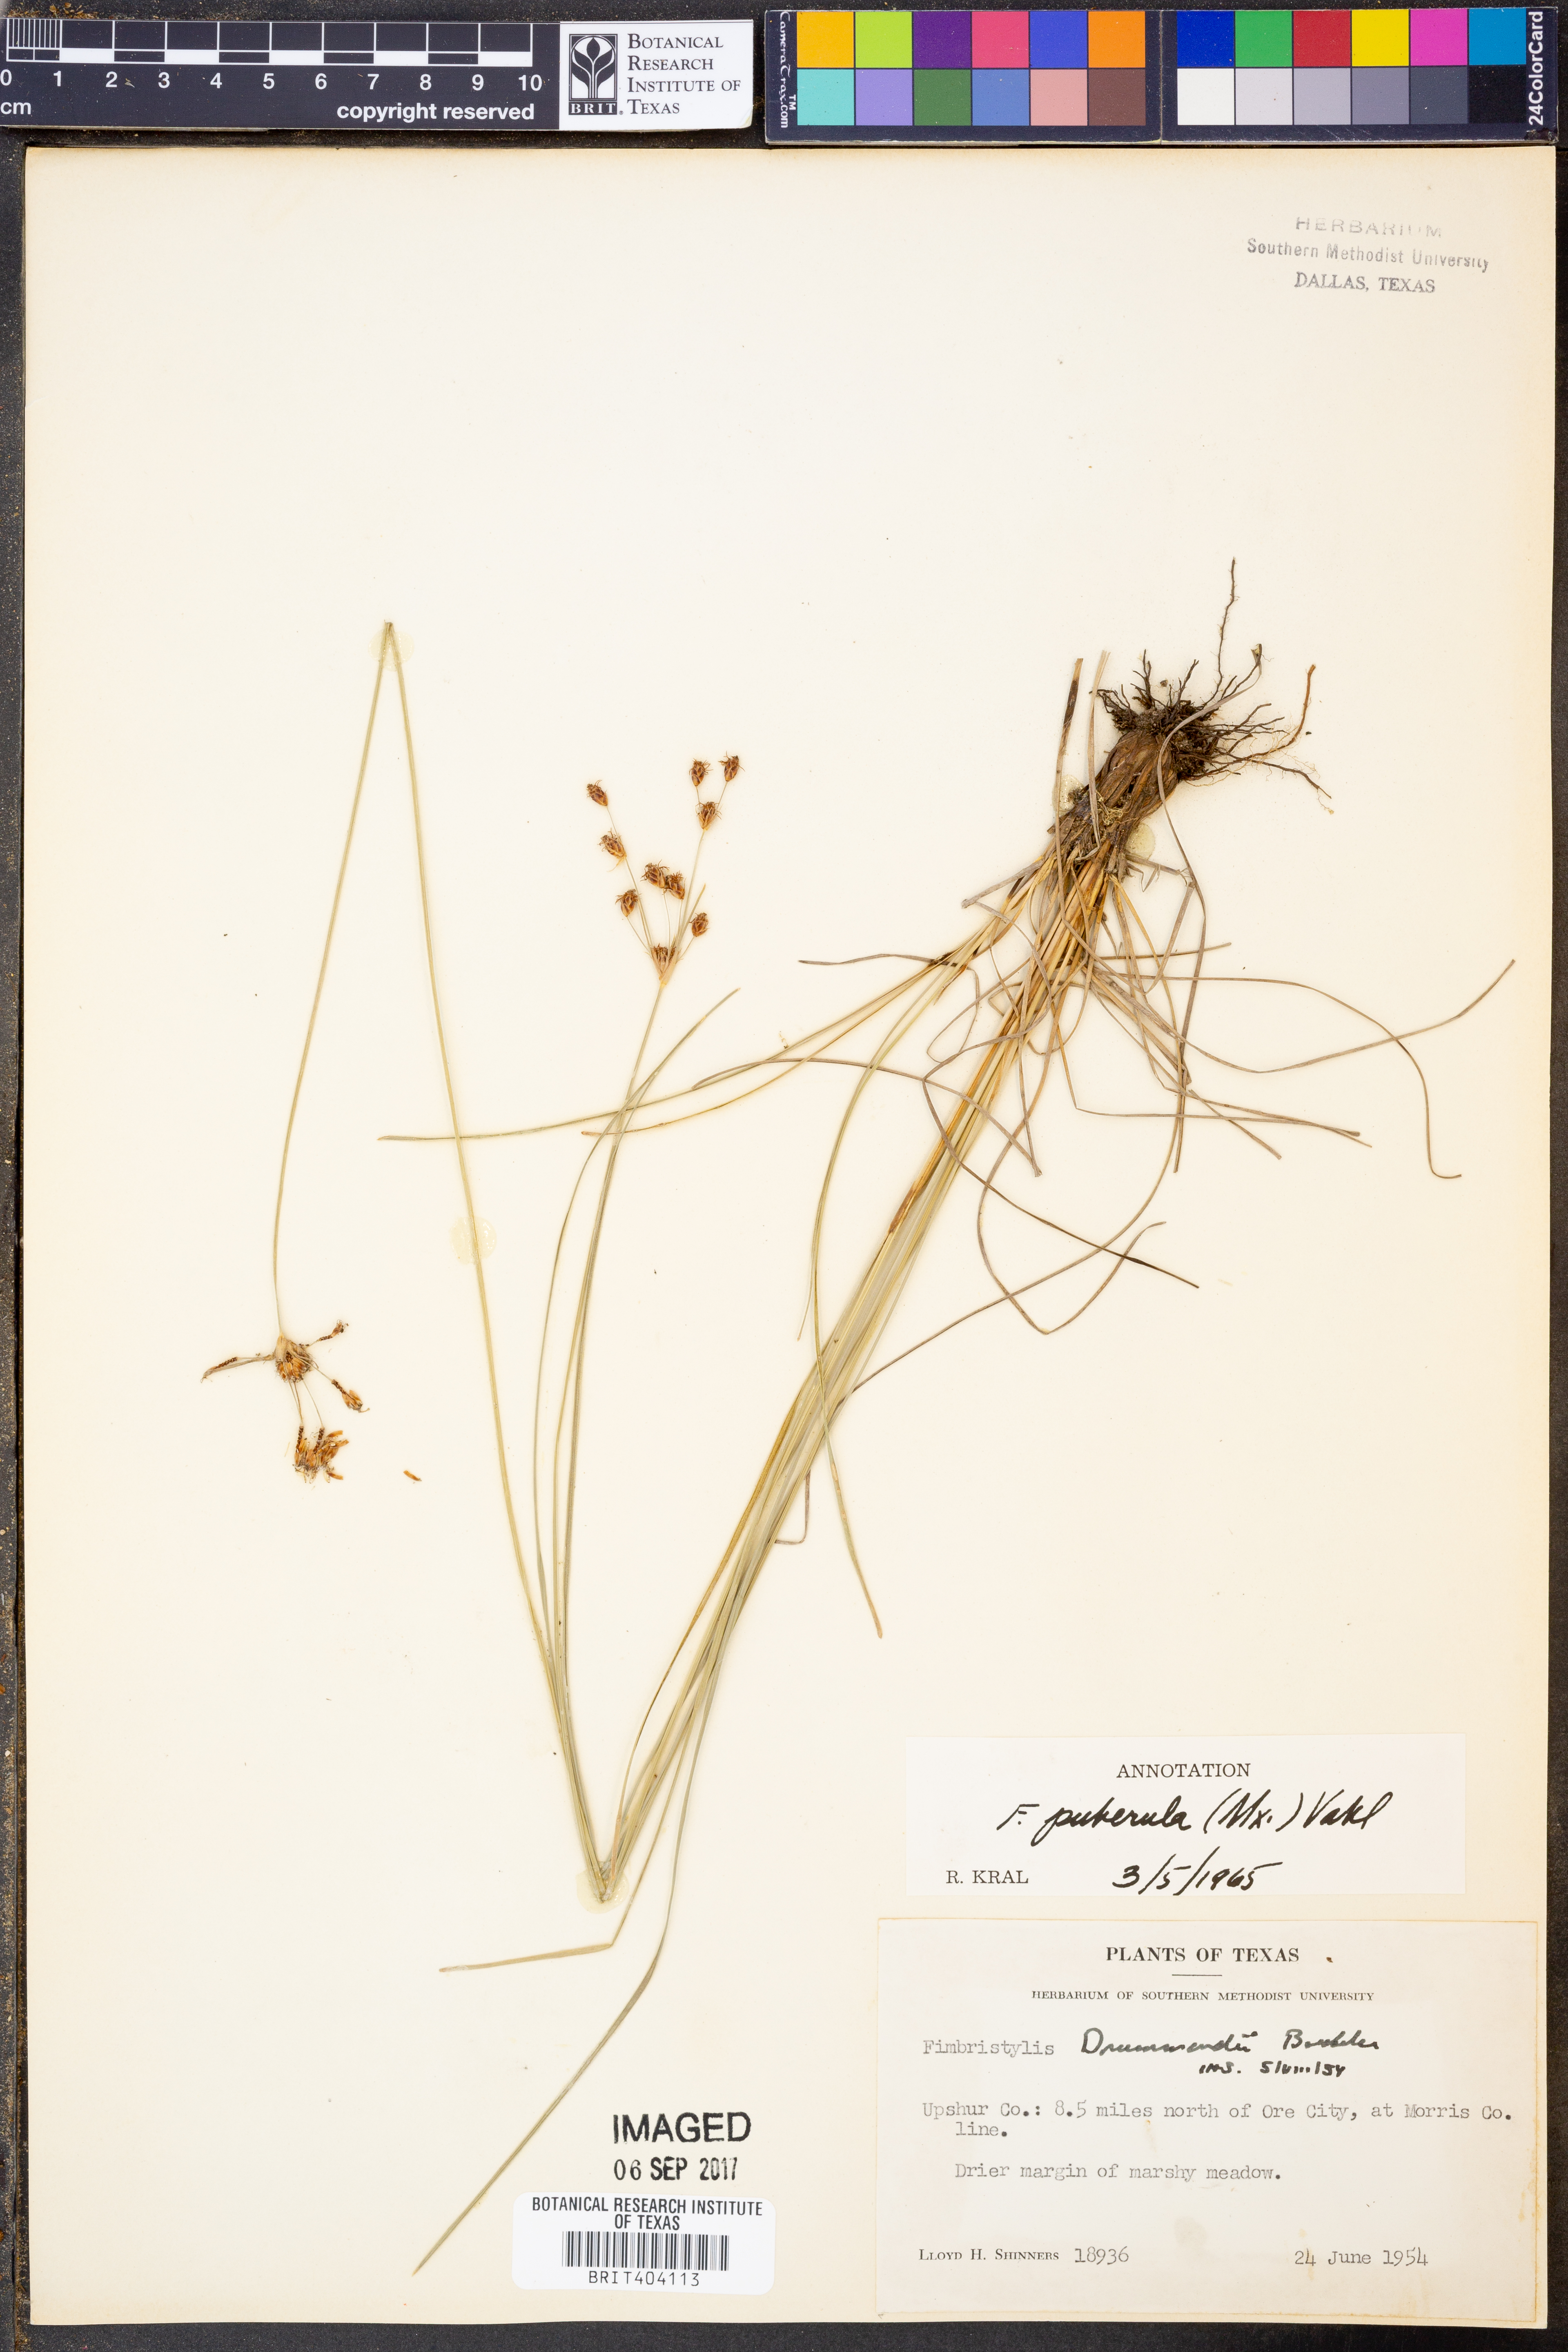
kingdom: Plantae
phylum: Tracheophyta
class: Liliopsida
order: Poales
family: Cyperaceae
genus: Fimbristylis
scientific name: Fimbristylis puberula
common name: Hairy fimbristylis
